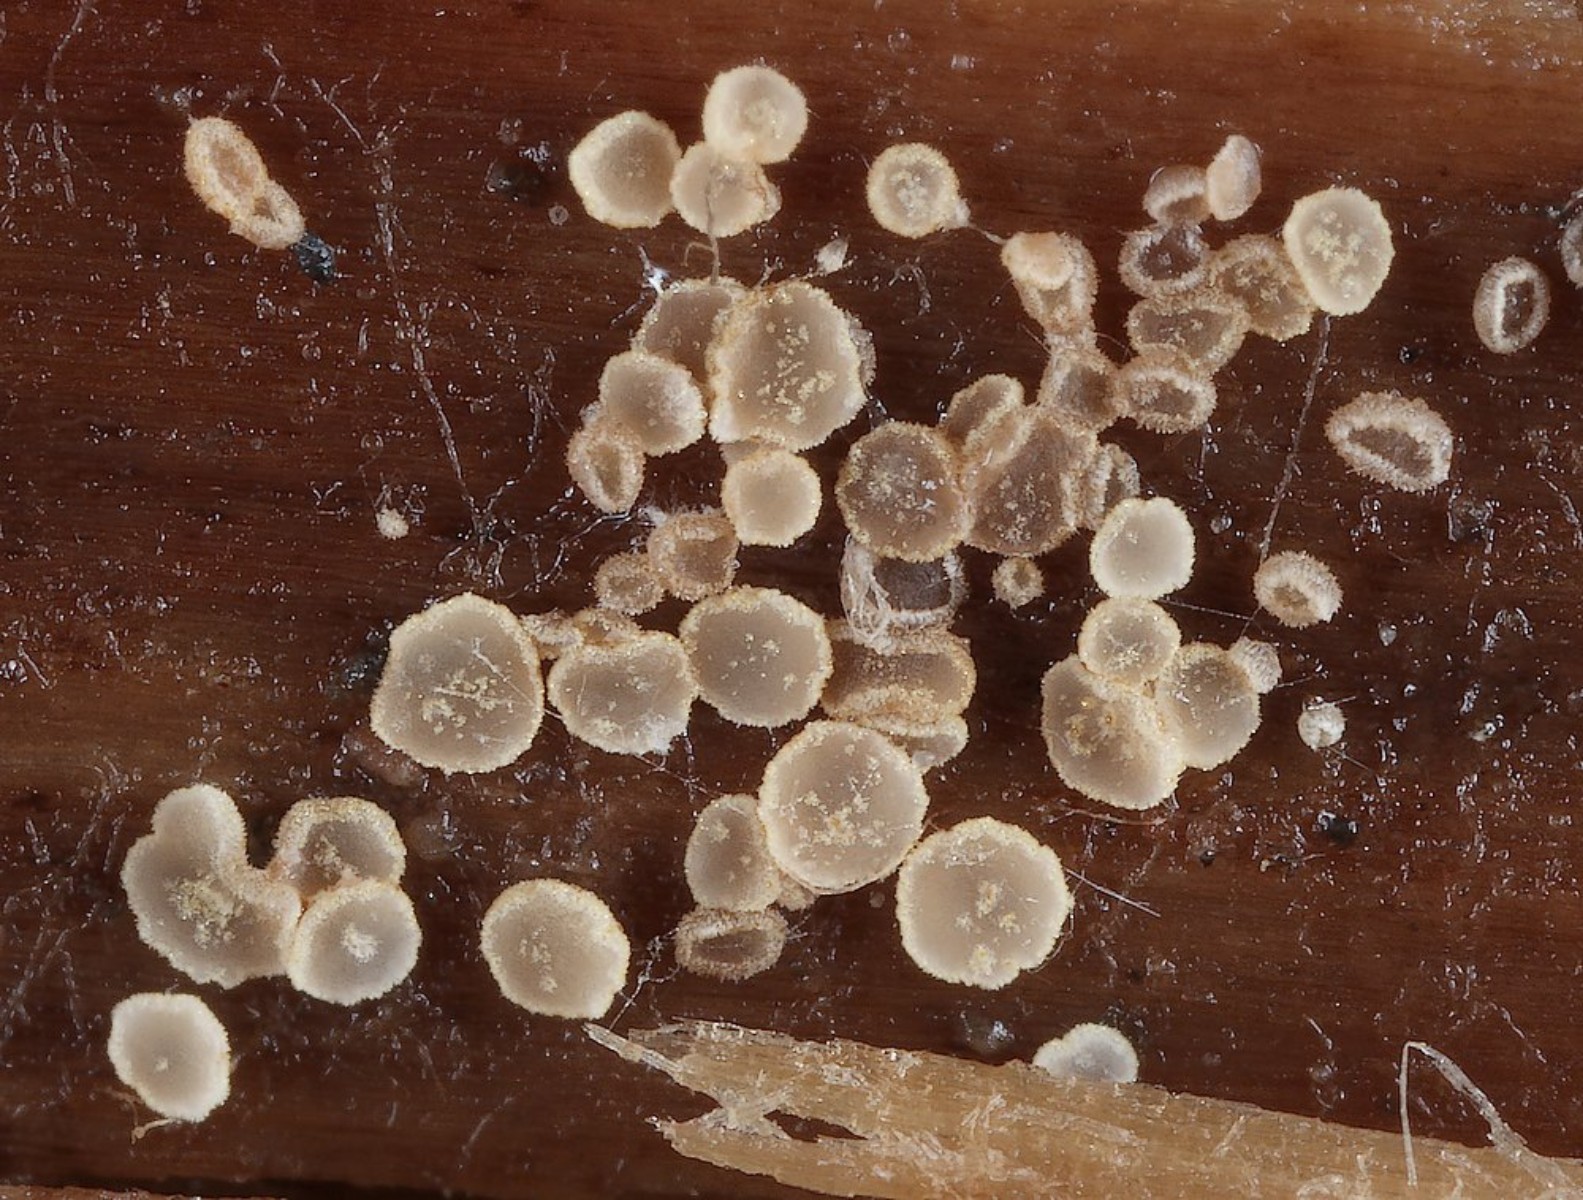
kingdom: Fungi
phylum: Ascomycota
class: Leotiomycetes
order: Helotiales
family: Hyaloscyphaceae
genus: Eupezizella
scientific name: Eupezizella aureliella
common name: almindelig klarskive
